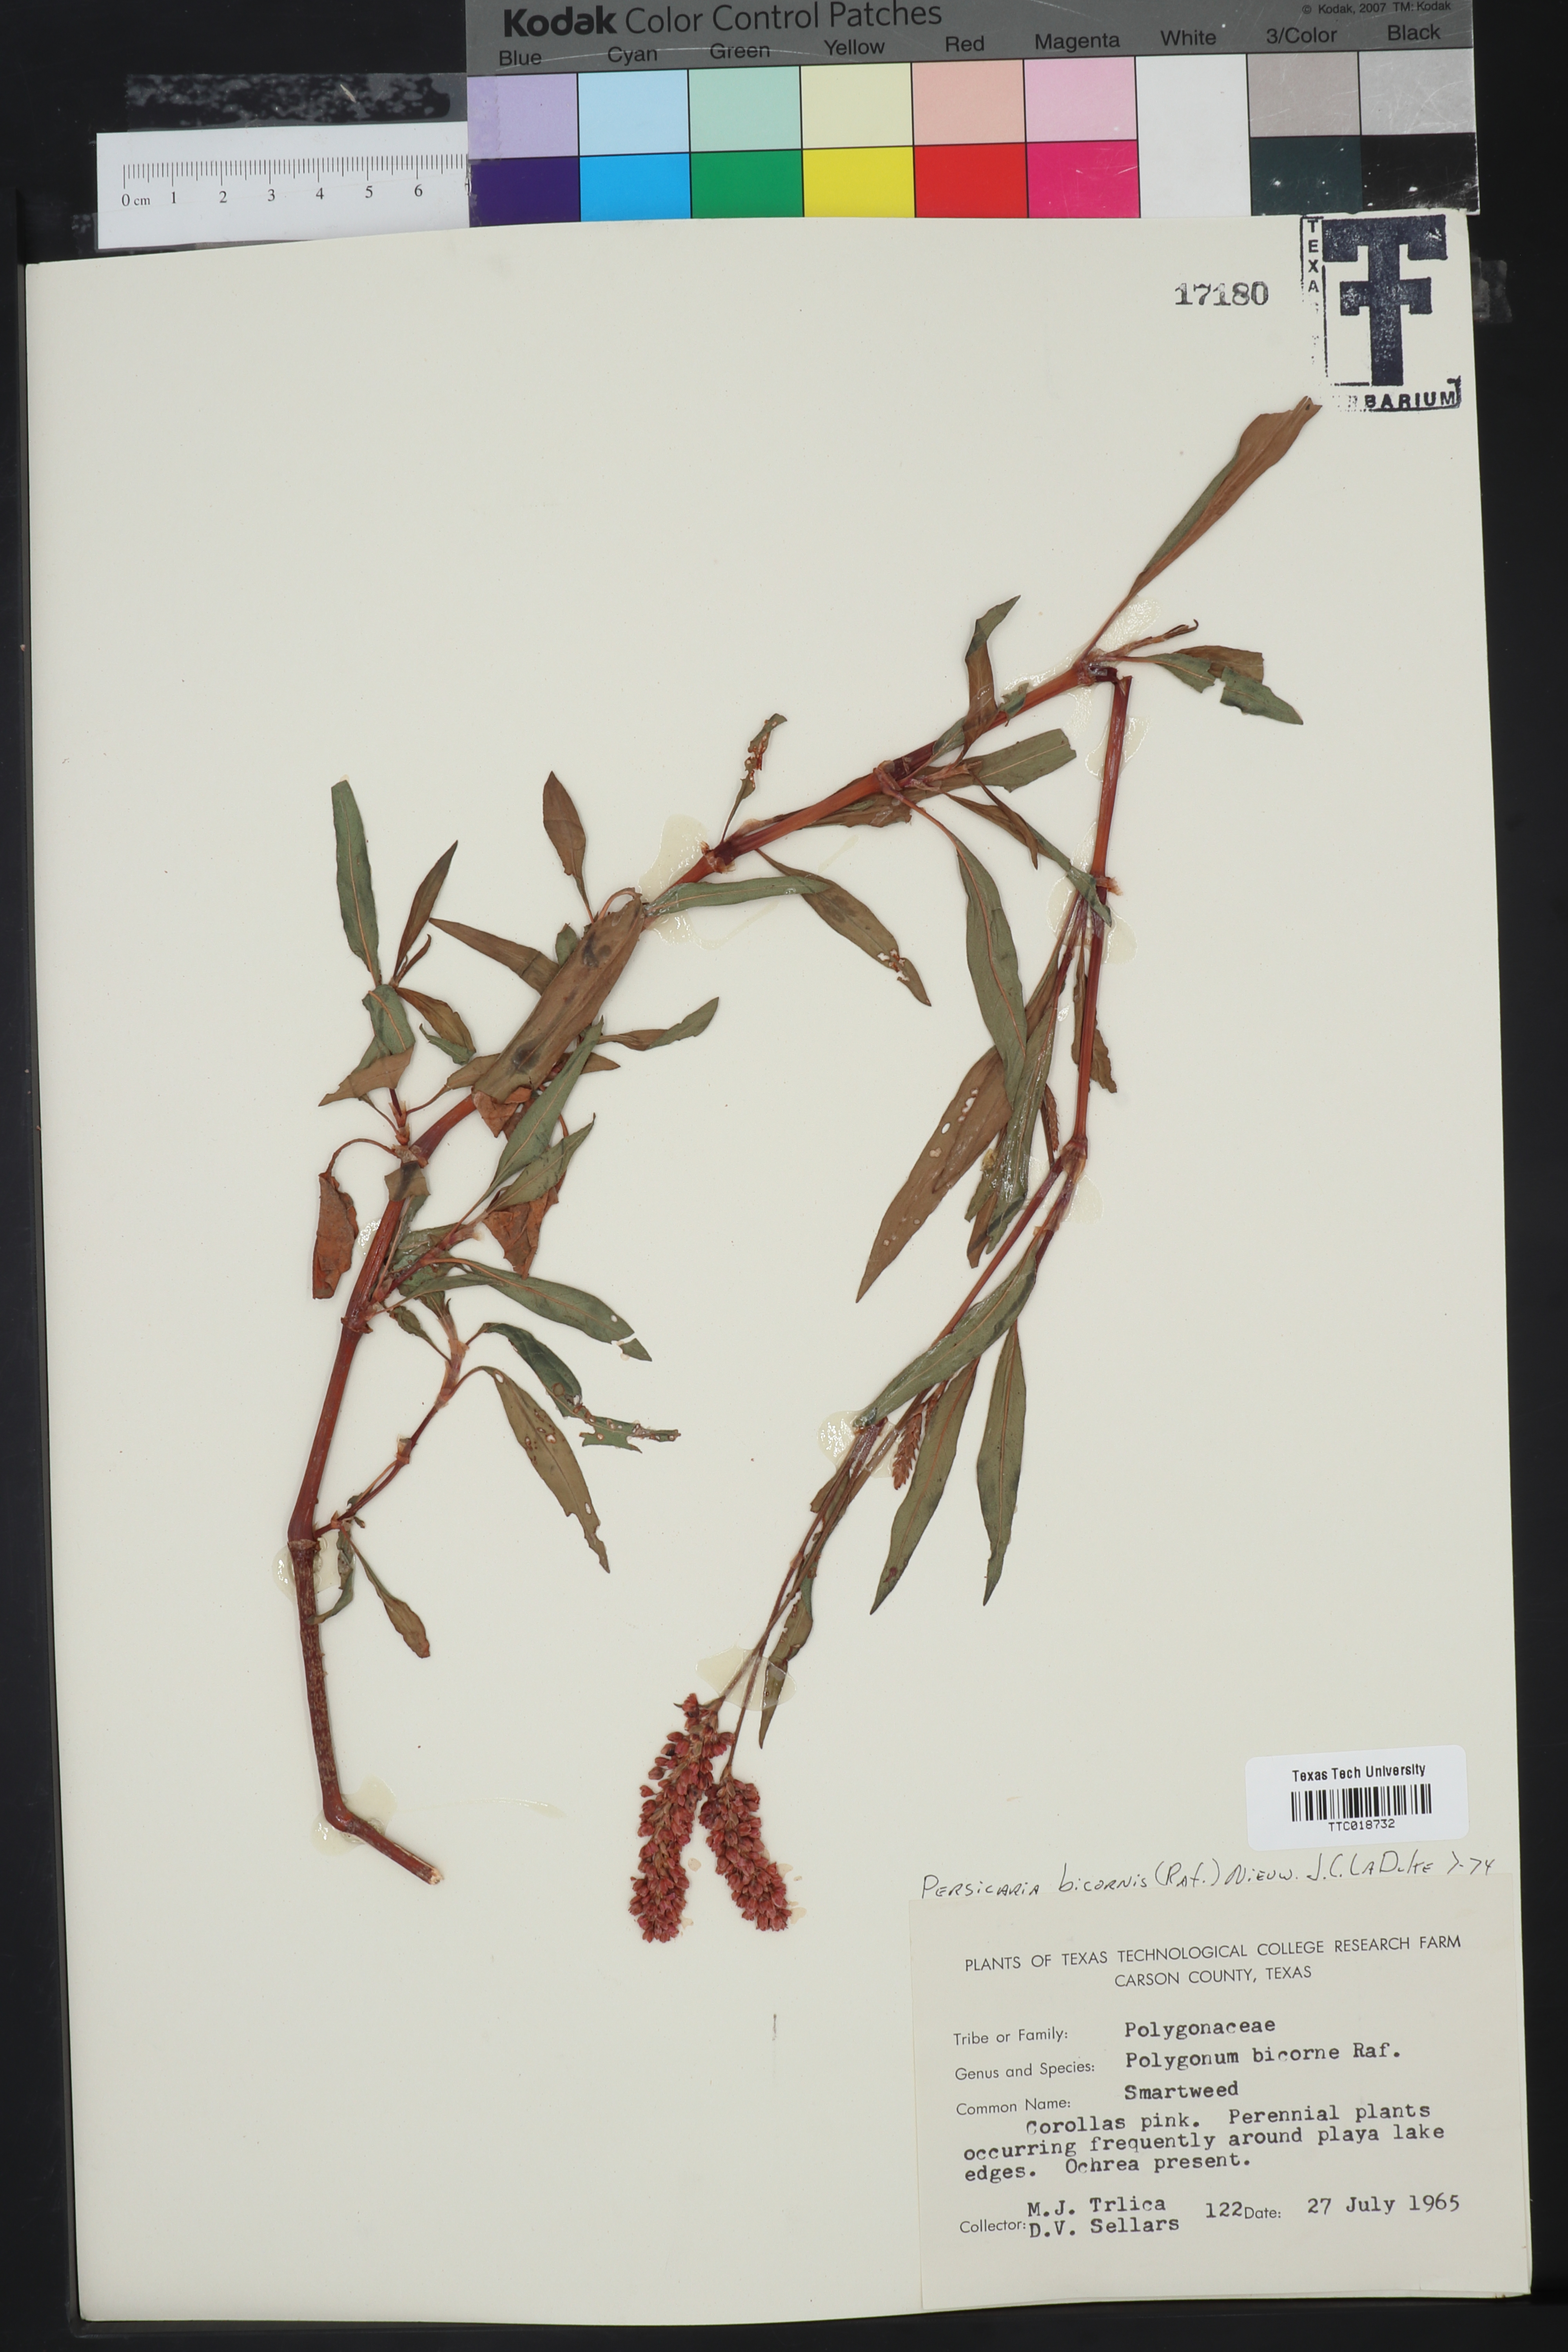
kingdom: Plantae
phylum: Tracheophyta
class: Magnoliopsida
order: Caryophyllales
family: Polygonaceae
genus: Persicaria
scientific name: Persicaria bicornis
